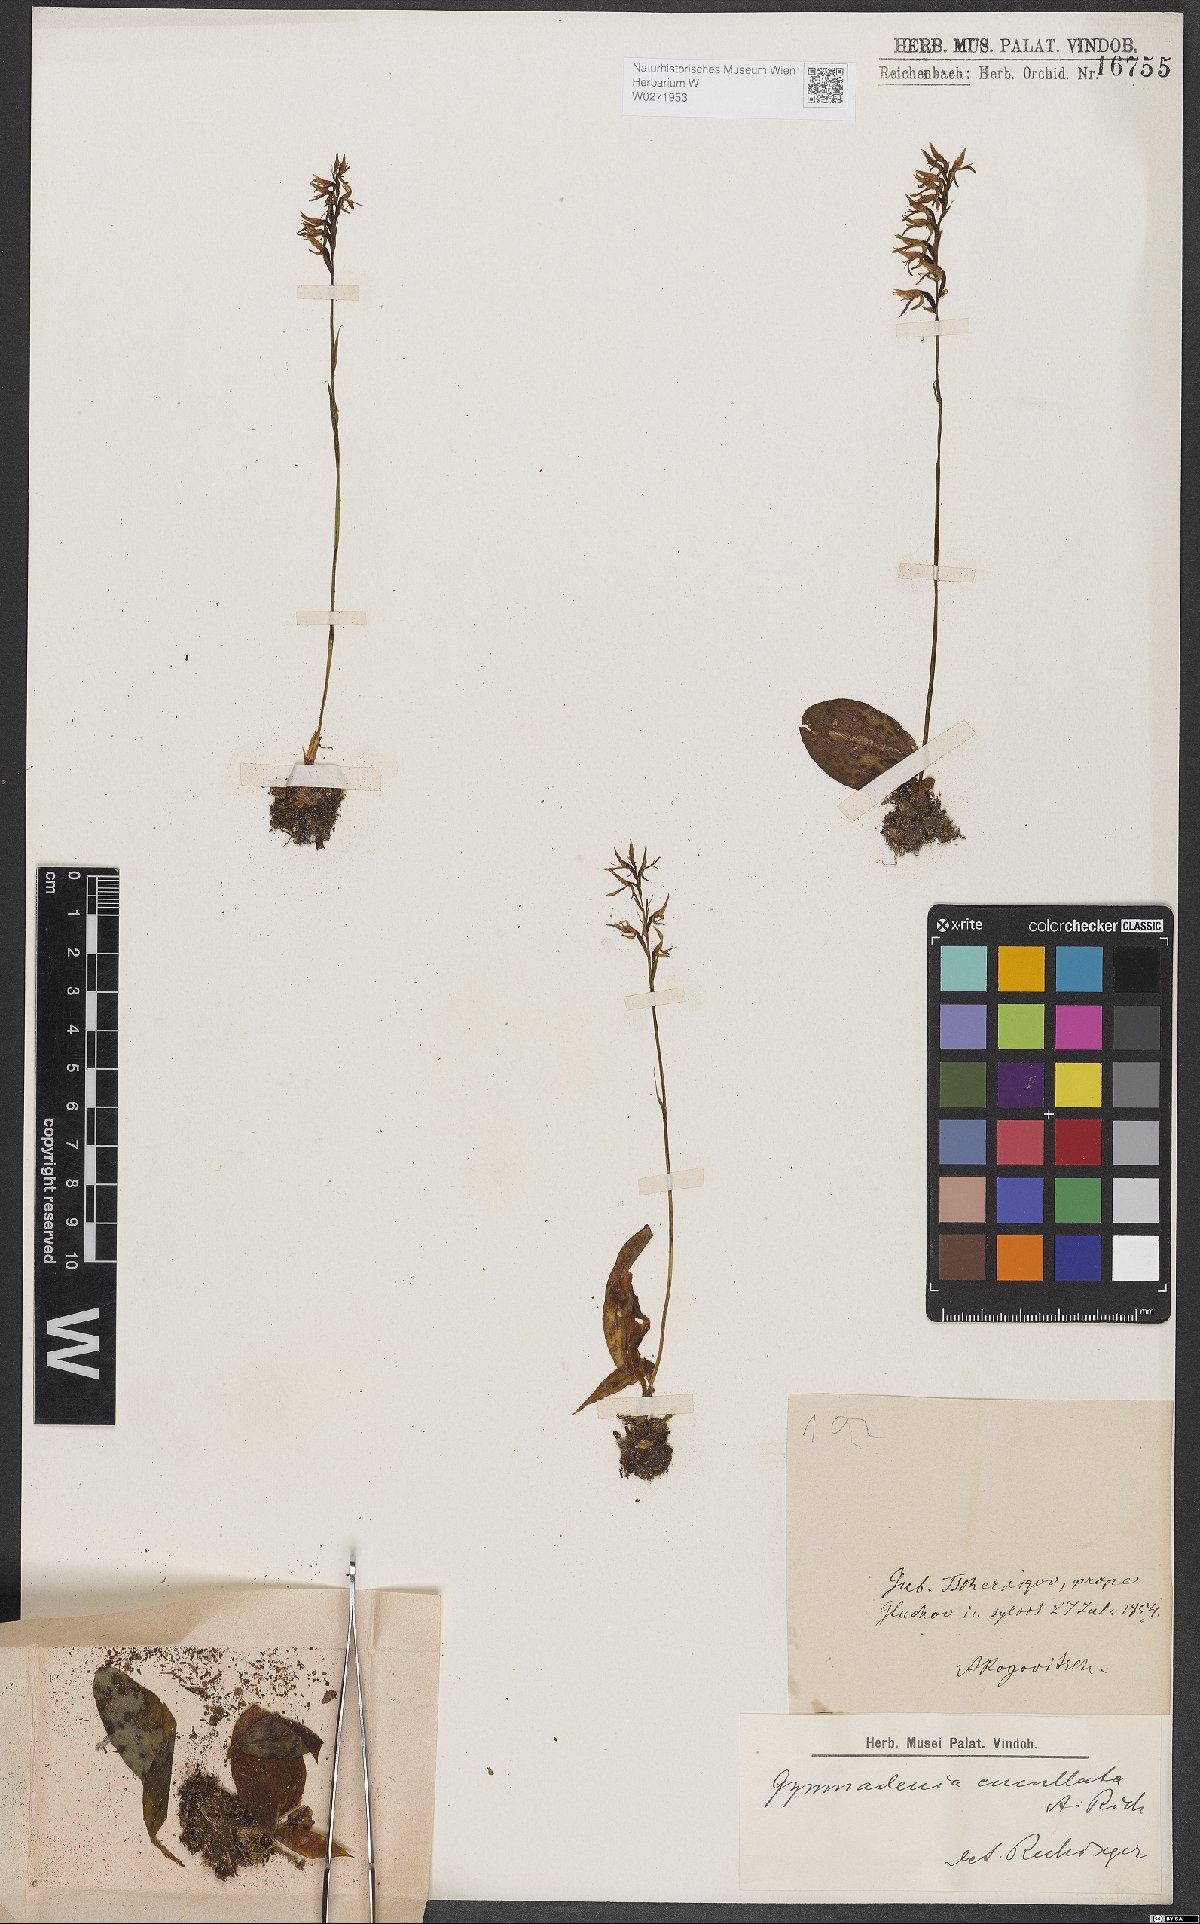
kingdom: Plantae
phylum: Tracheophyta
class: Liliopsida
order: Asparagales
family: Orchidaceae
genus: Hemipilia
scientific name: Hemipilia cucullata
